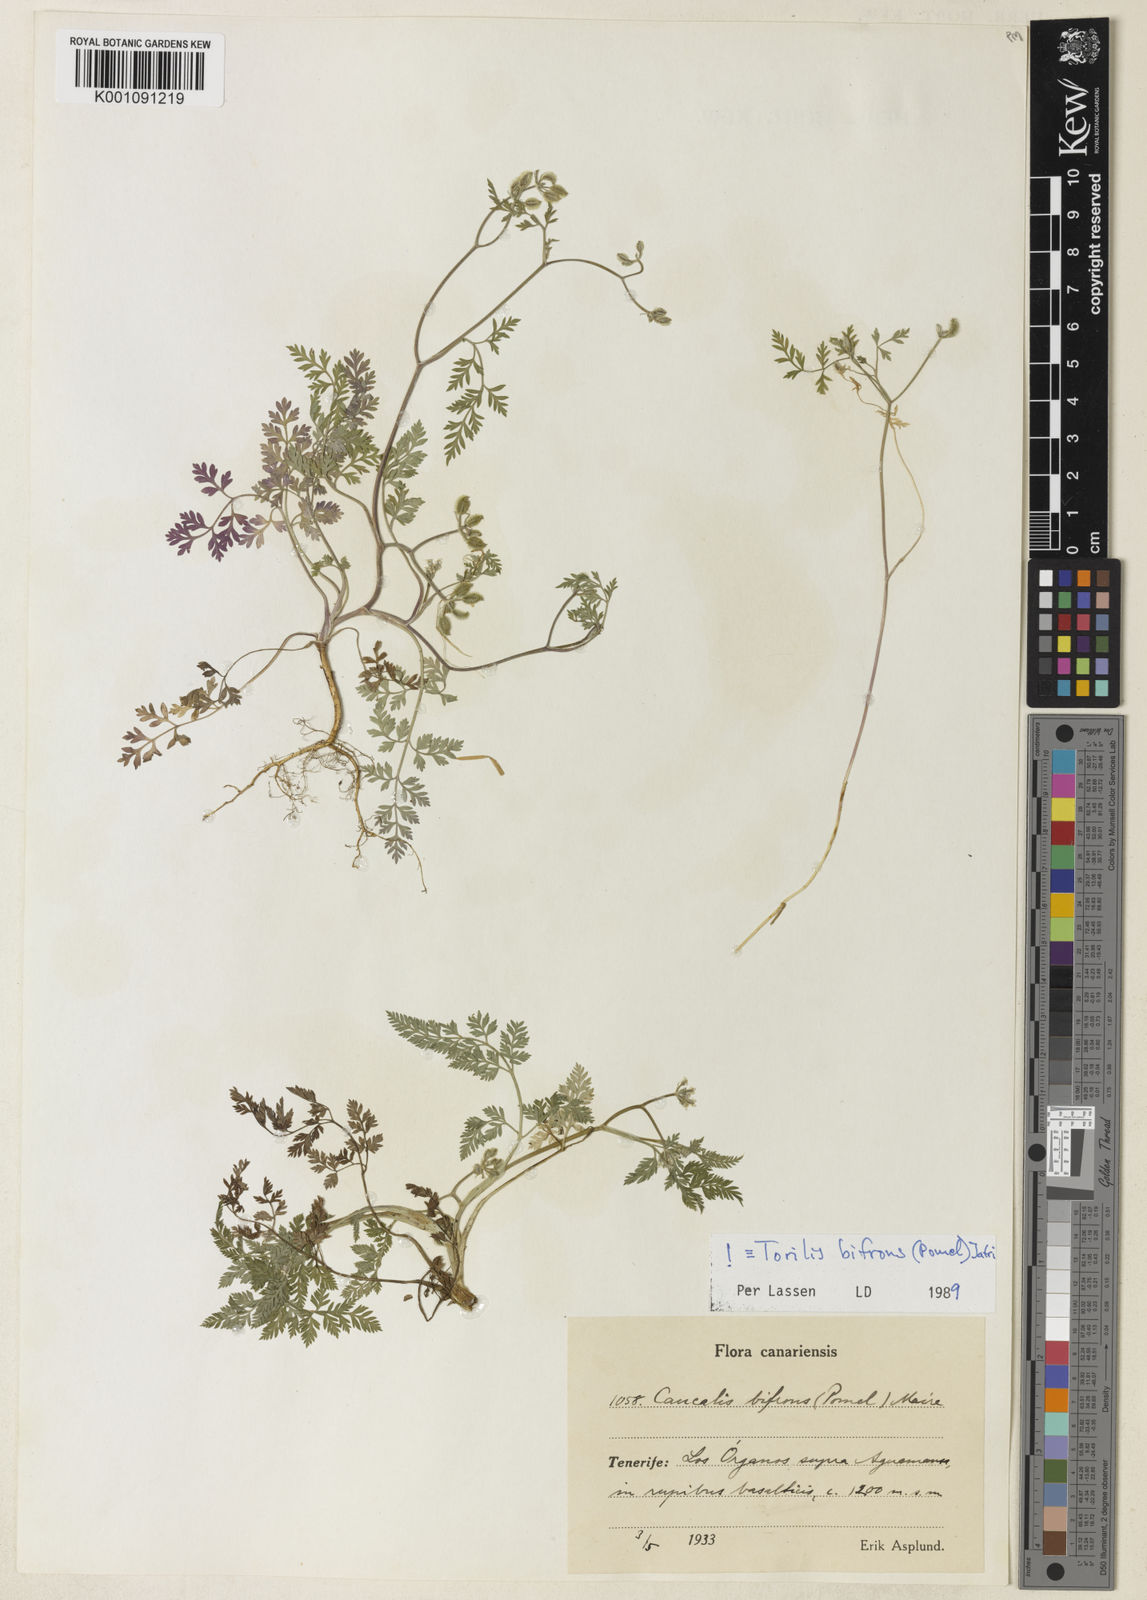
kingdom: Plantae
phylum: Tracheophyta
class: Magnoliopsida
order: Apiales
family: Apiaceae
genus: Torilis
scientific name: Torilis elongata
